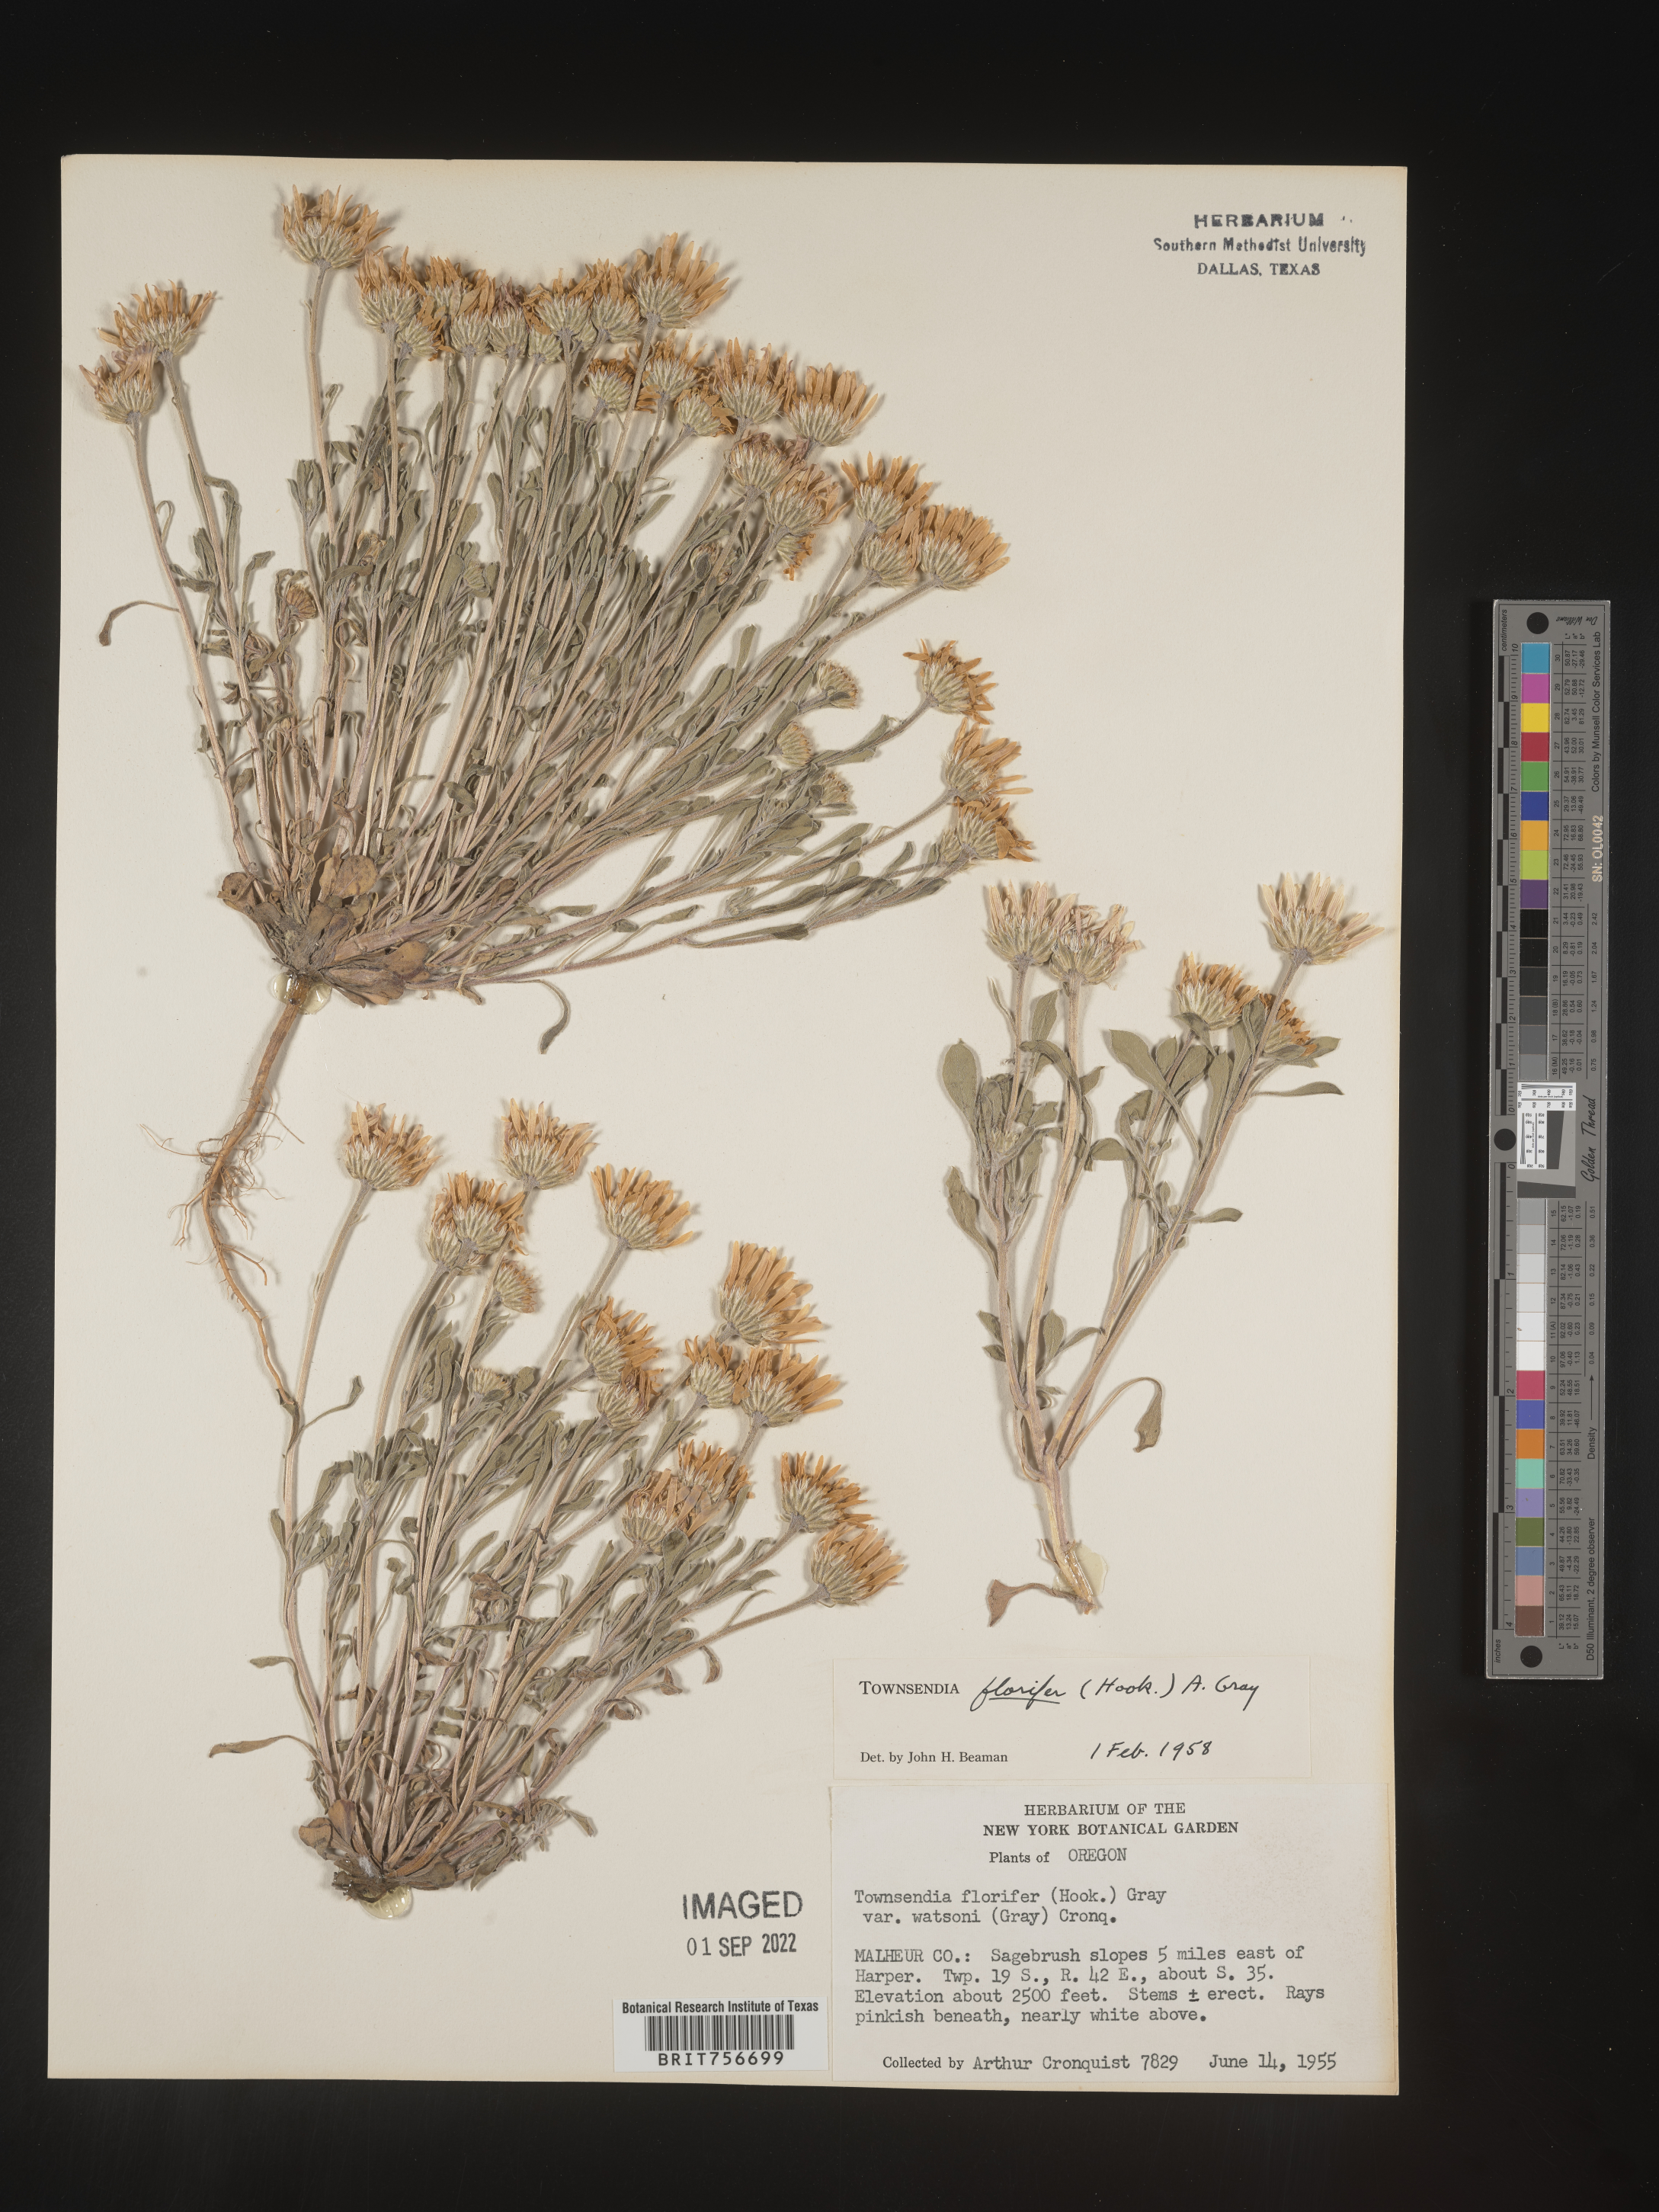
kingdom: Plantae
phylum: Tracheophyta
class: Magnoliopsida
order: Asterales
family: Asteraceae
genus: Townsendia
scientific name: Townsendia florifer
